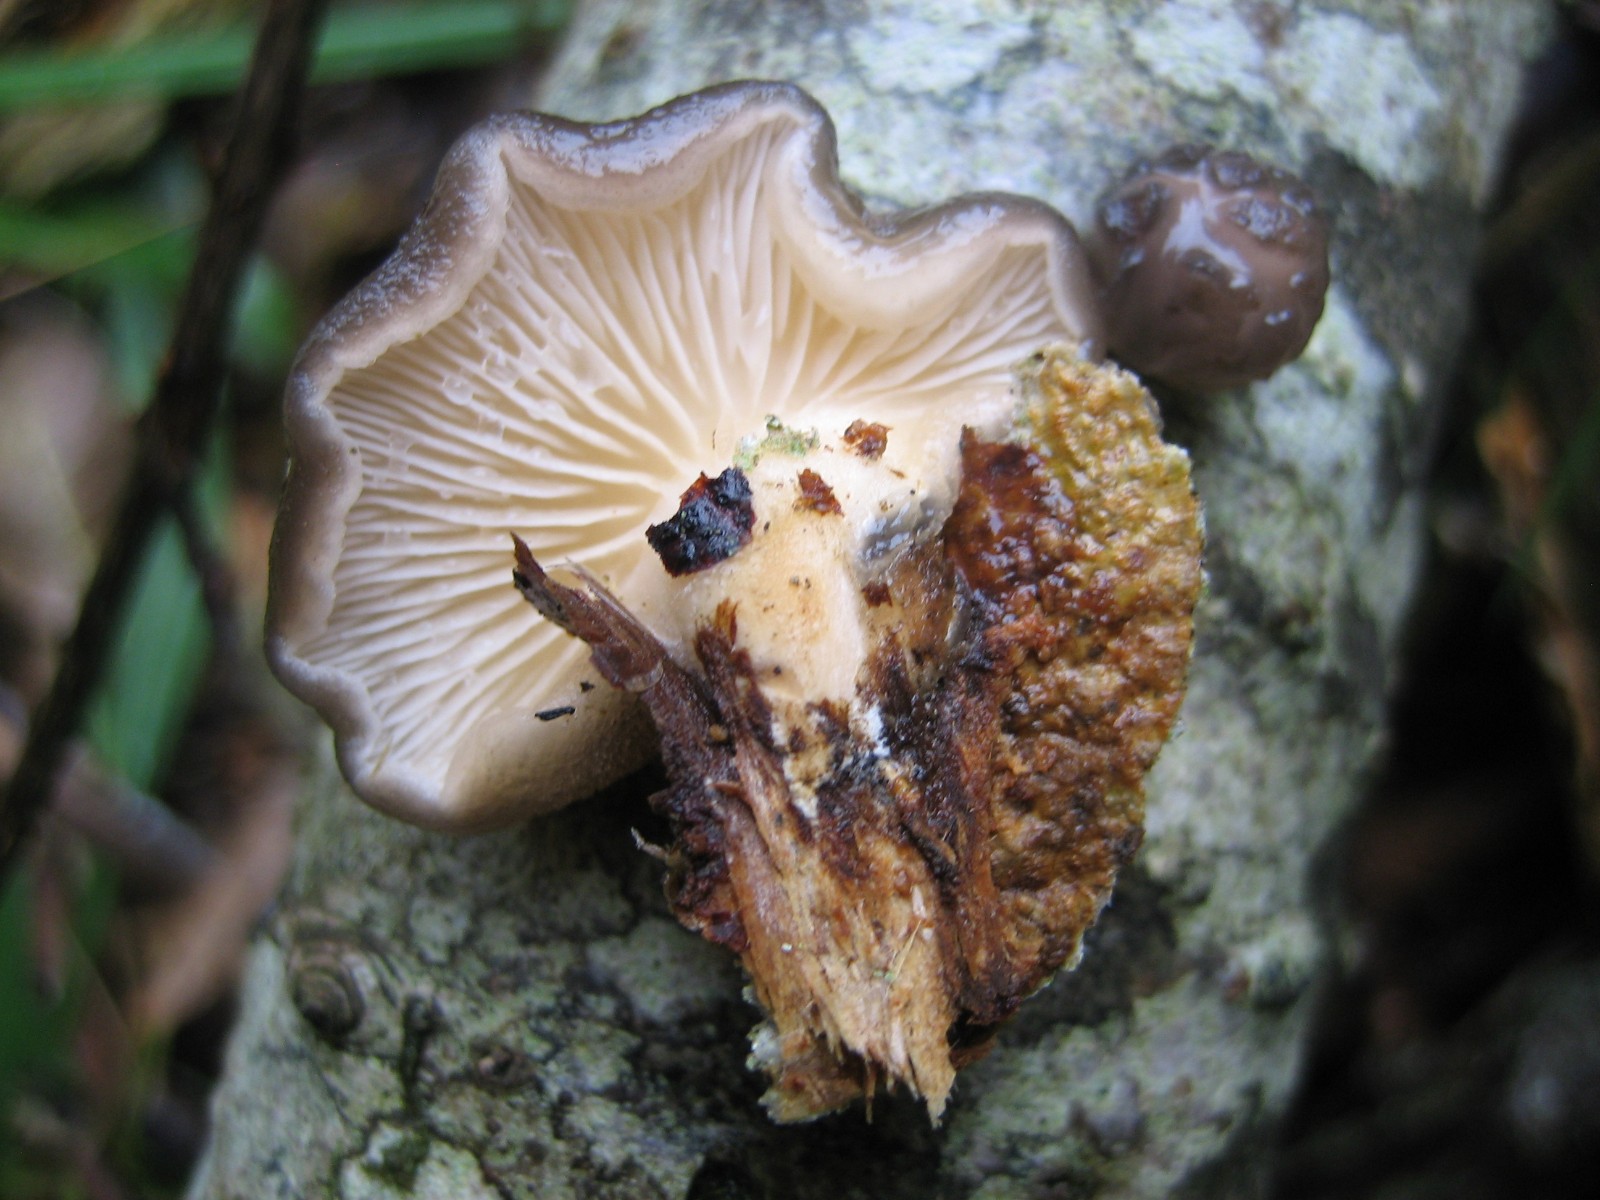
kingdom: Fungi
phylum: Basidiomycota
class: Agaricomycetes
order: Agaricales
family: Pleurotaceae
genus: Hohenbuehelia
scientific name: Hohenbuehelia mastrucata
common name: skællet filthat
